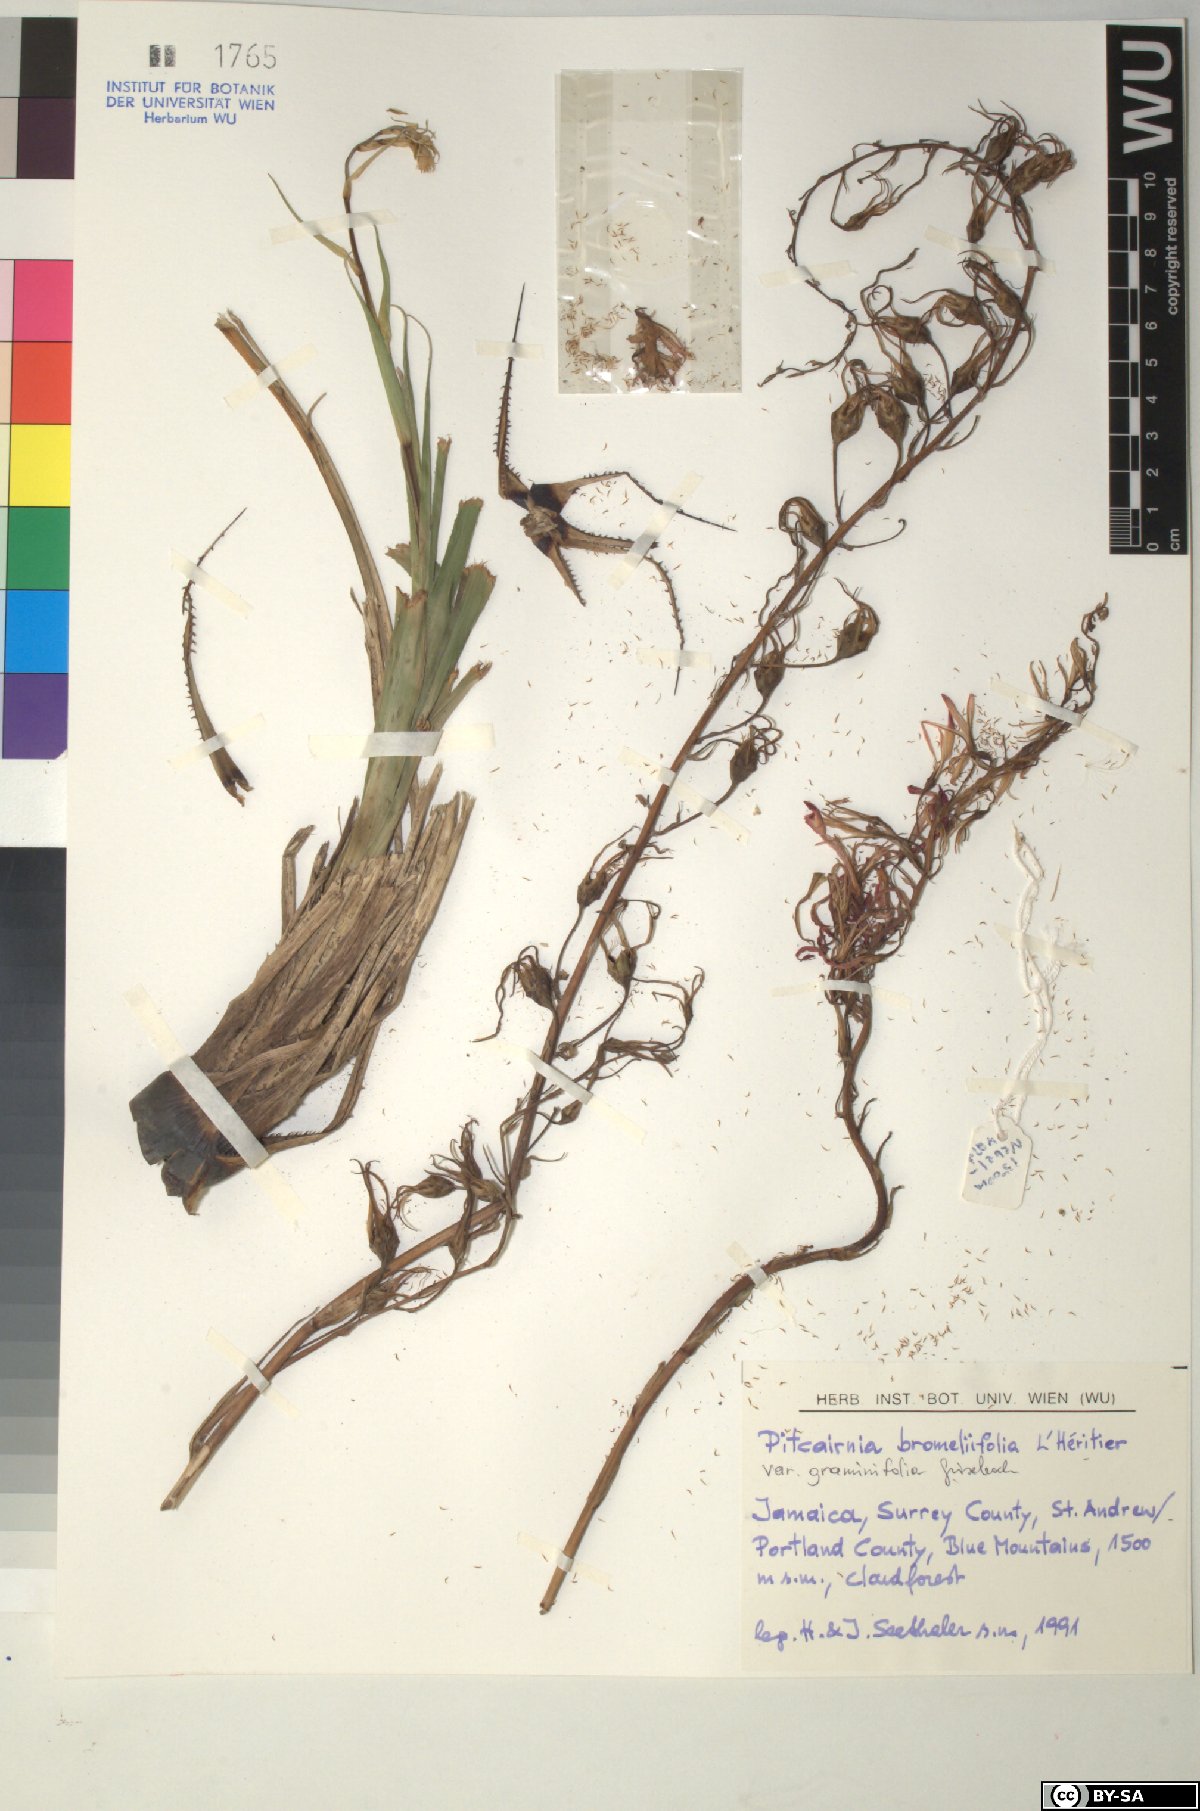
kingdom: Plantae
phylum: Tracheophyta
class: Liliopsida
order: Poales
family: Bromeliaceae
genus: Pitcairnia
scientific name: Pitcairnia bromeliifolia
